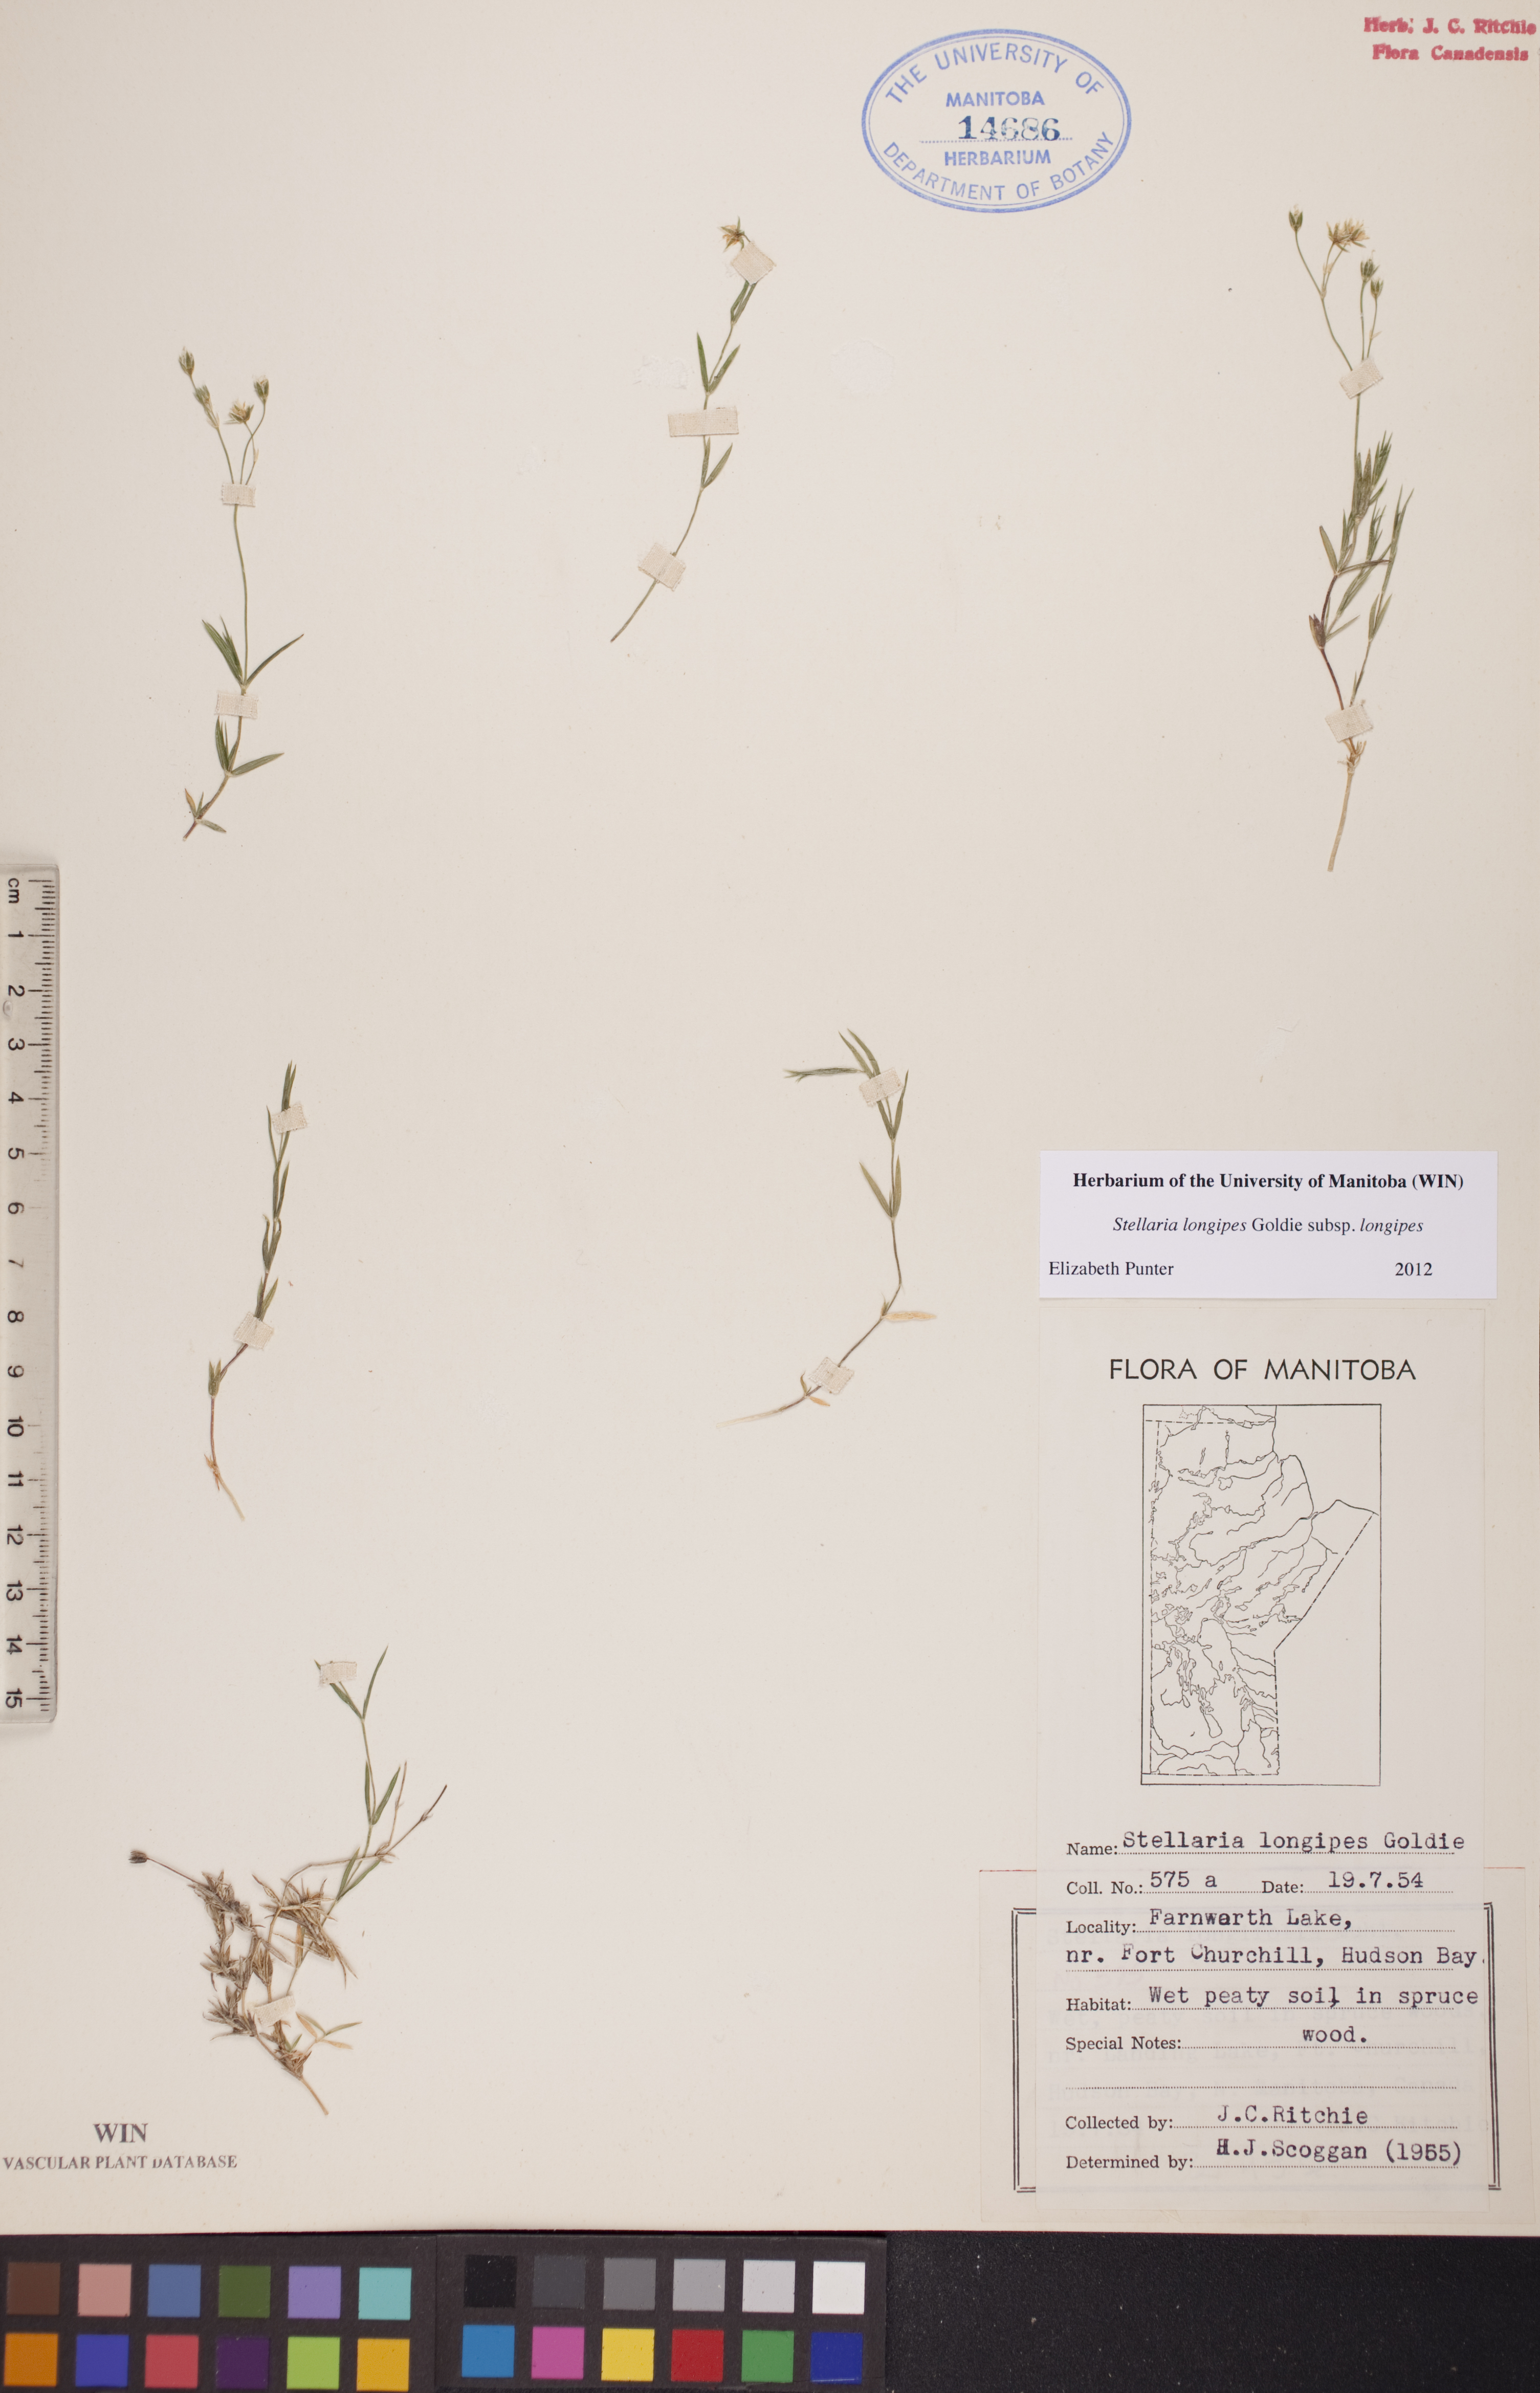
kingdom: Plantae
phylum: Tracheophyta
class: Magnoliopsida
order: Caryophyllales
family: Caryophyllaceae
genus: Stellaria
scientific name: Stellaria longipes
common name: Goldie's starwort
